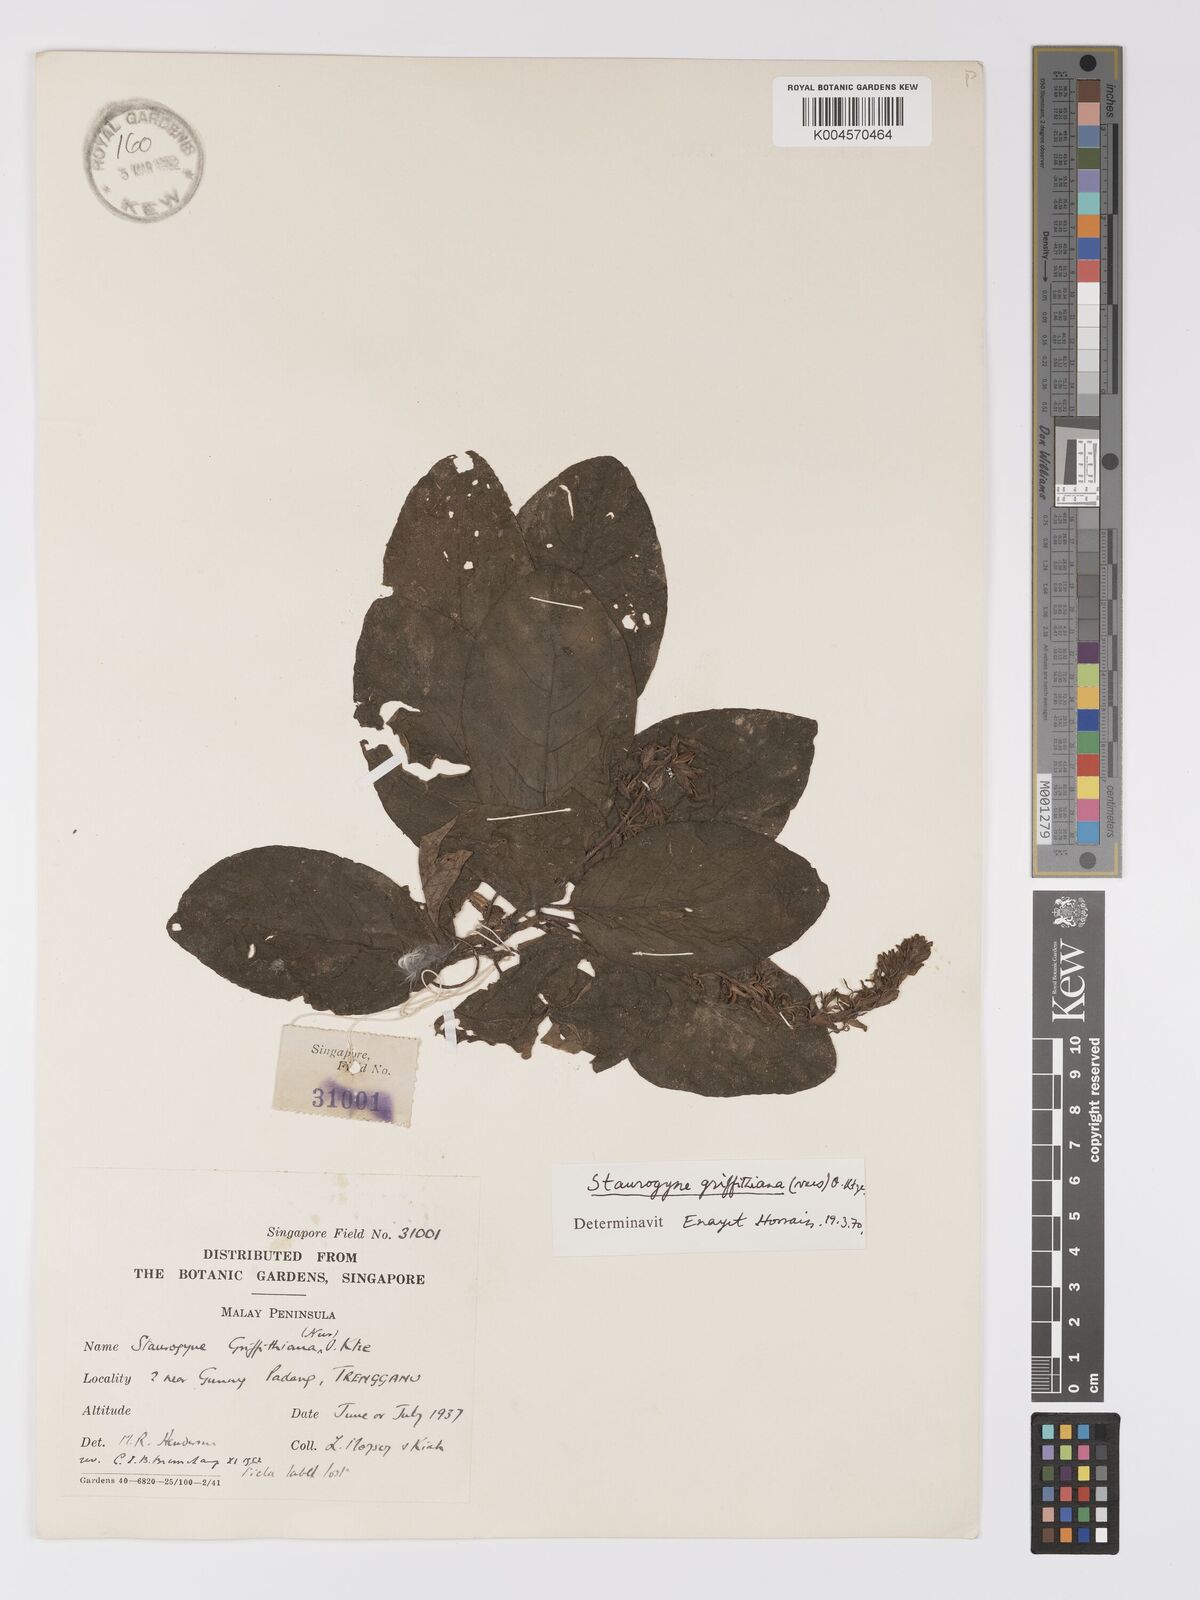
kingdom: Plantae
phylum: Tracheophyta
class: Magnoliopsida
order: Lamiales
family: Acanthaceae
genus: Staurogyne
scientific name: Staurogyne griffithiana
